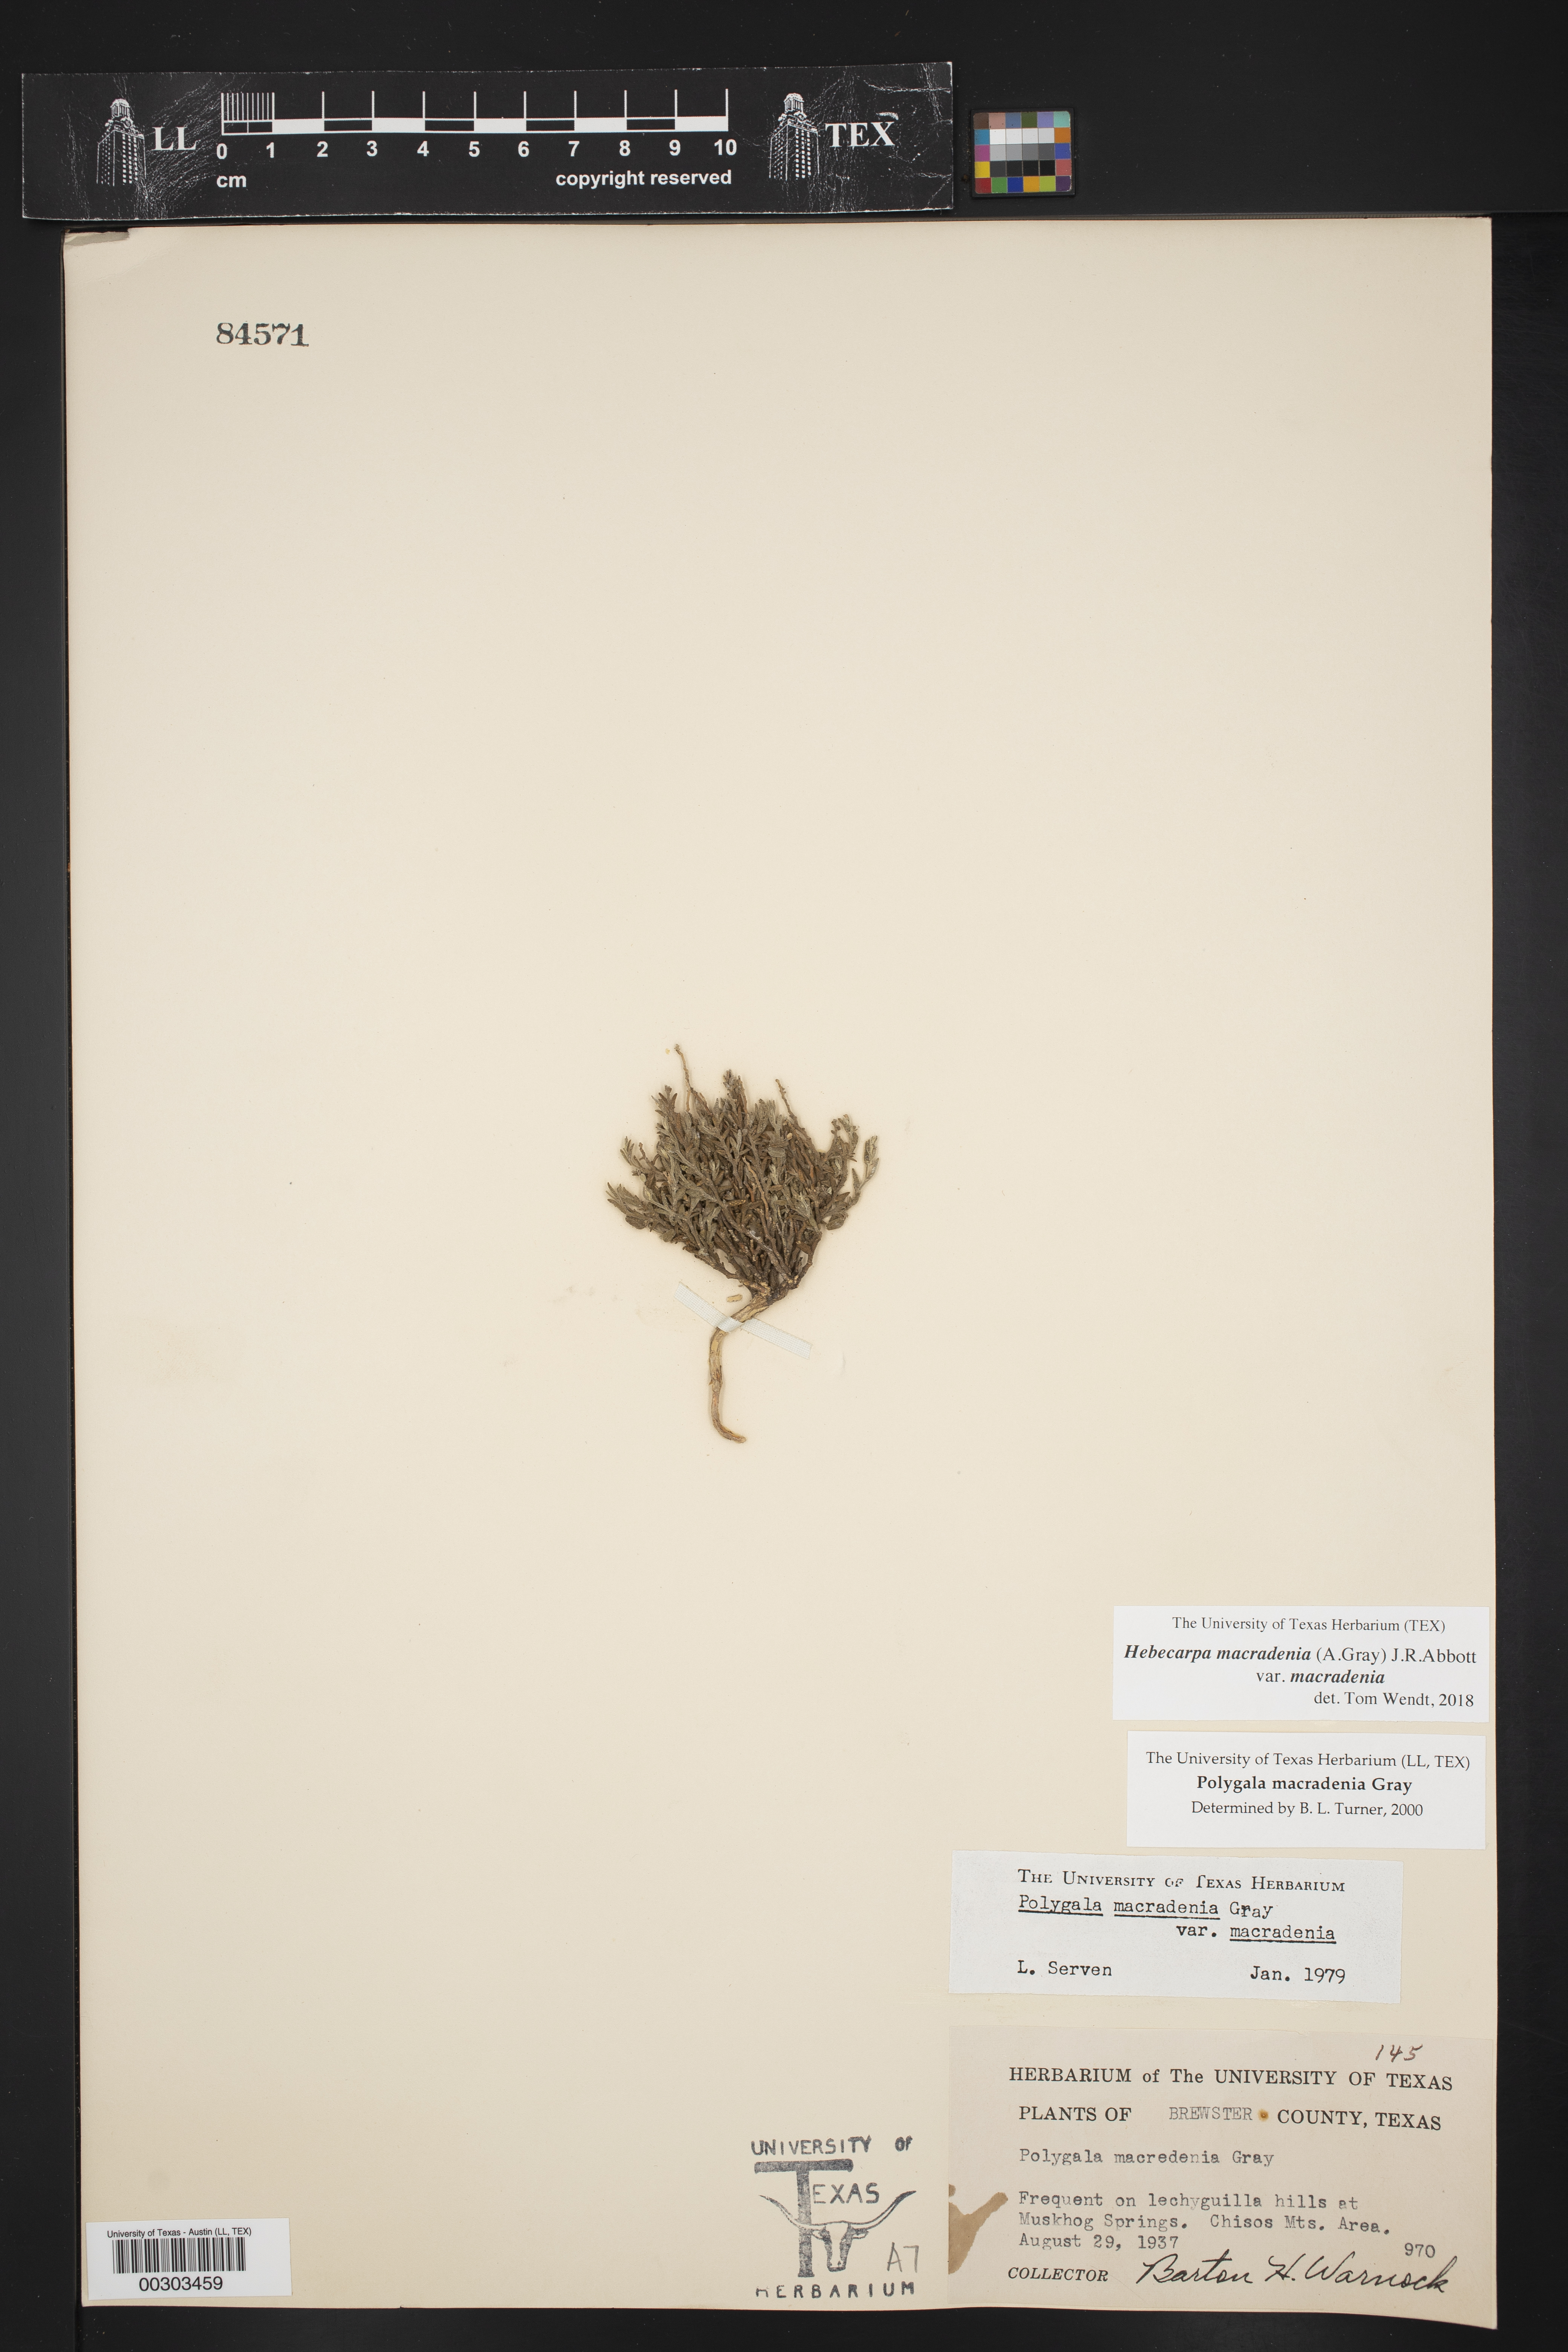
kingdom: Plantae
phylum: Tracheophyta
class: Magnoliopsida
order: Fabales
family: Polygalaceae
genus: Hebecarpa
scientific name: Hebecarpa macradenia
